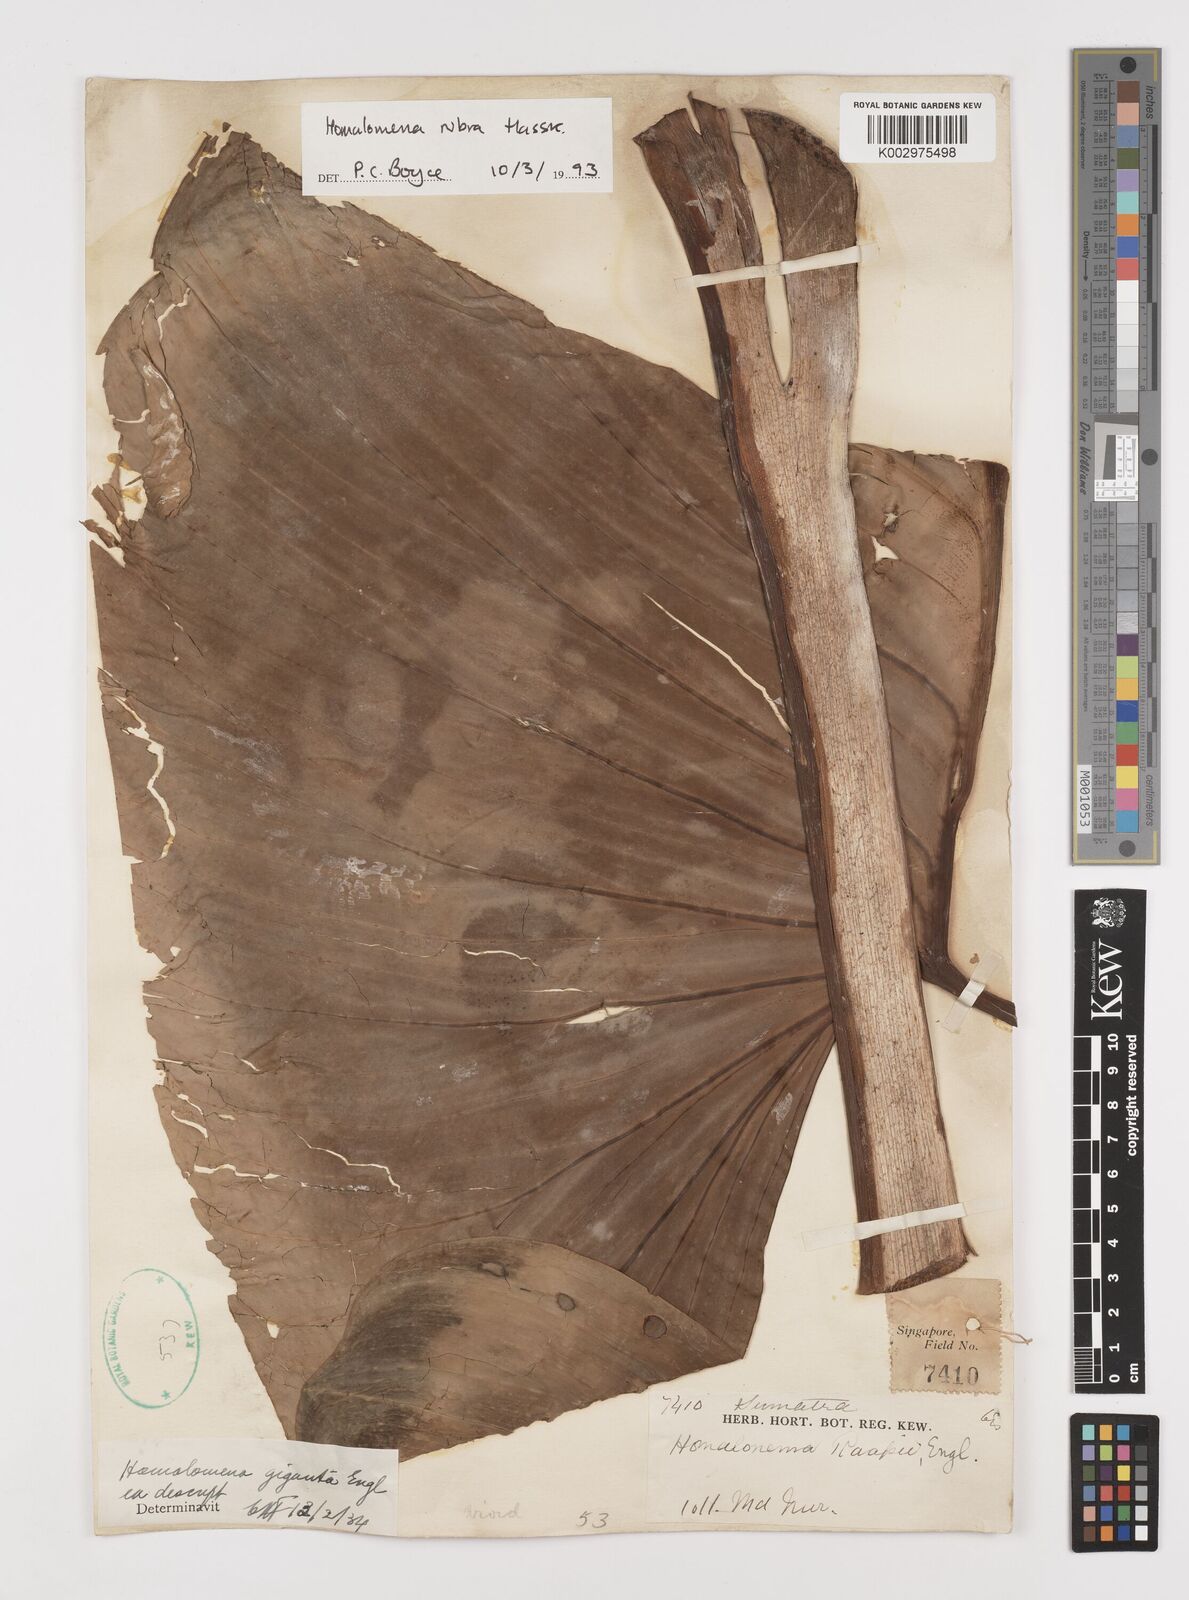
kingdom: Plantae
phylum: Tracheophyta
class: Liliopsida
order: Alismatales
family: Araceae
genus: Homalomena
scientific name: Homalomena pendula
